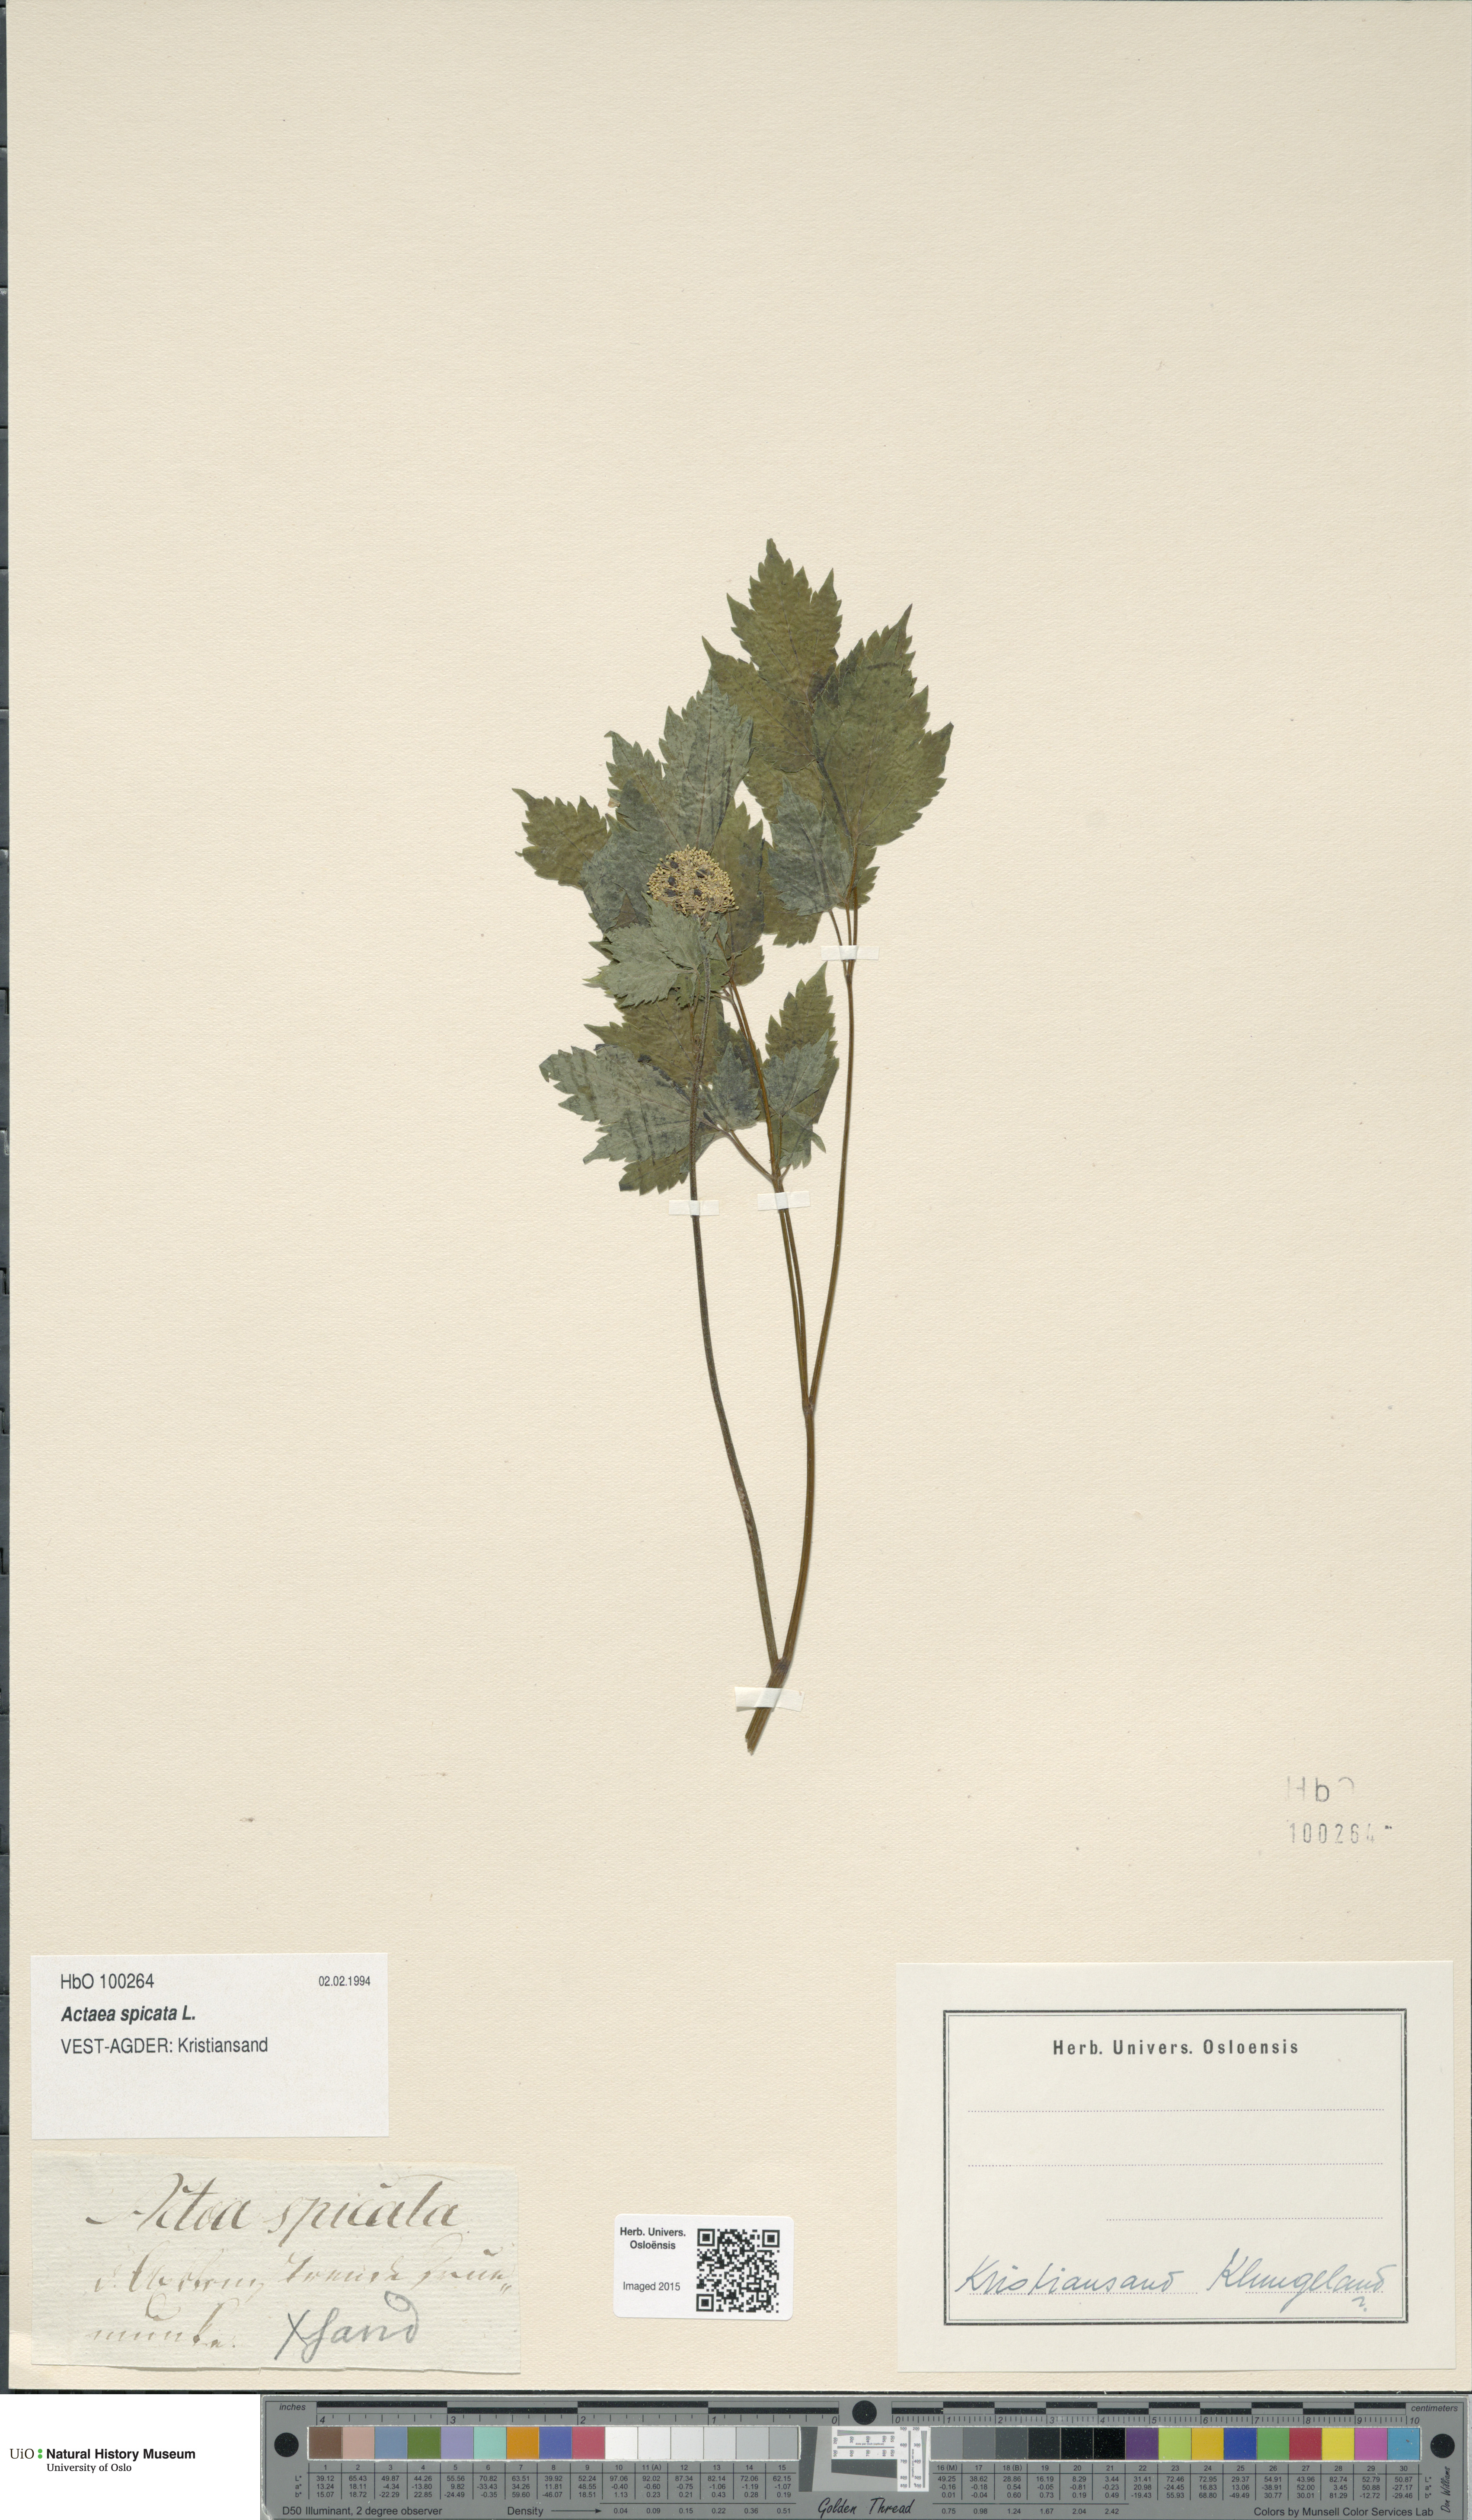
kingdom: Plantae
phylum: Tracheophyta
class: Magnoliopsida
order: Ranunculales
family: Ranunculaceae
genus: Actaea
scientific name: Actaea spicata
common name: Baneberry
